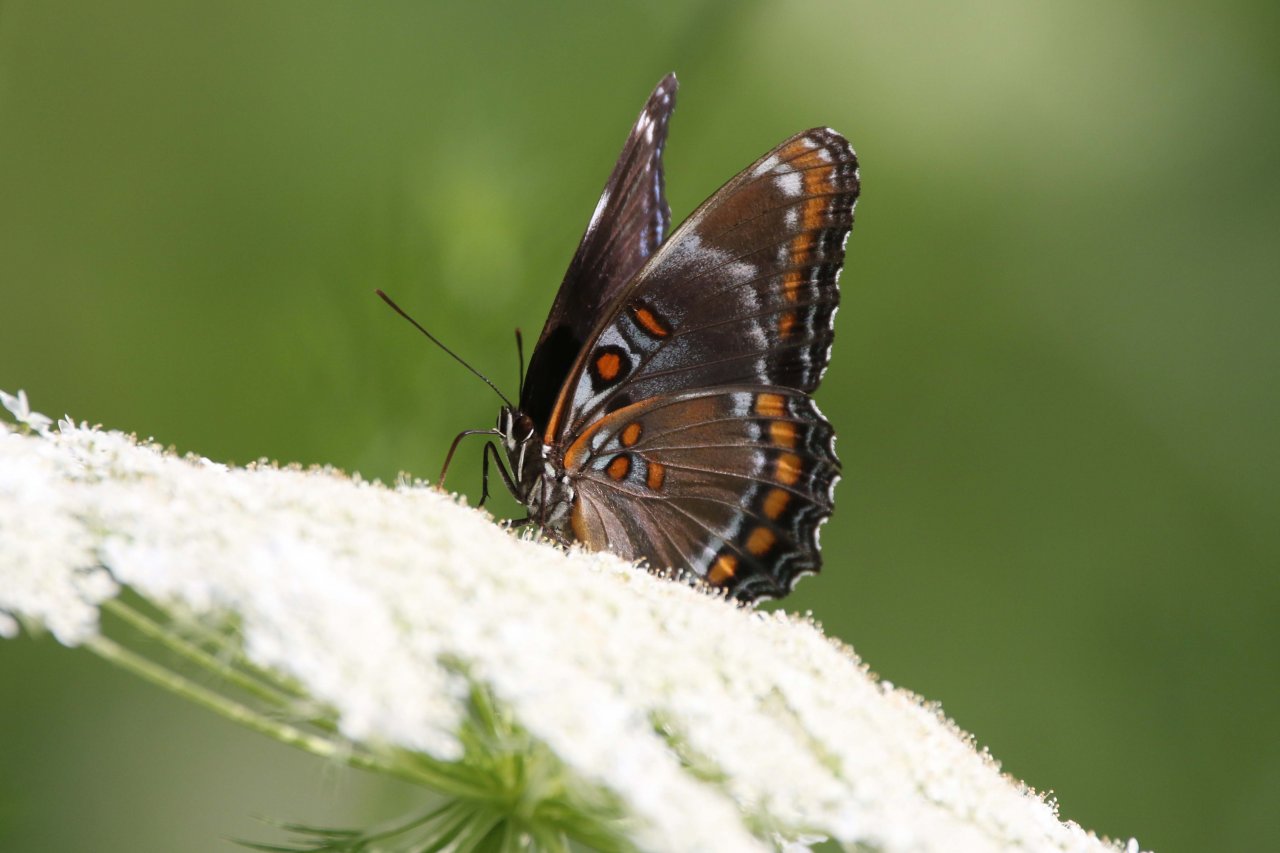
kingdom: Animalia
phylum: Arthropoda
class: Insecta
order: Lepidoptera
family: Nymphalidae
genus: Limenitis
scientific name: Limenitis
